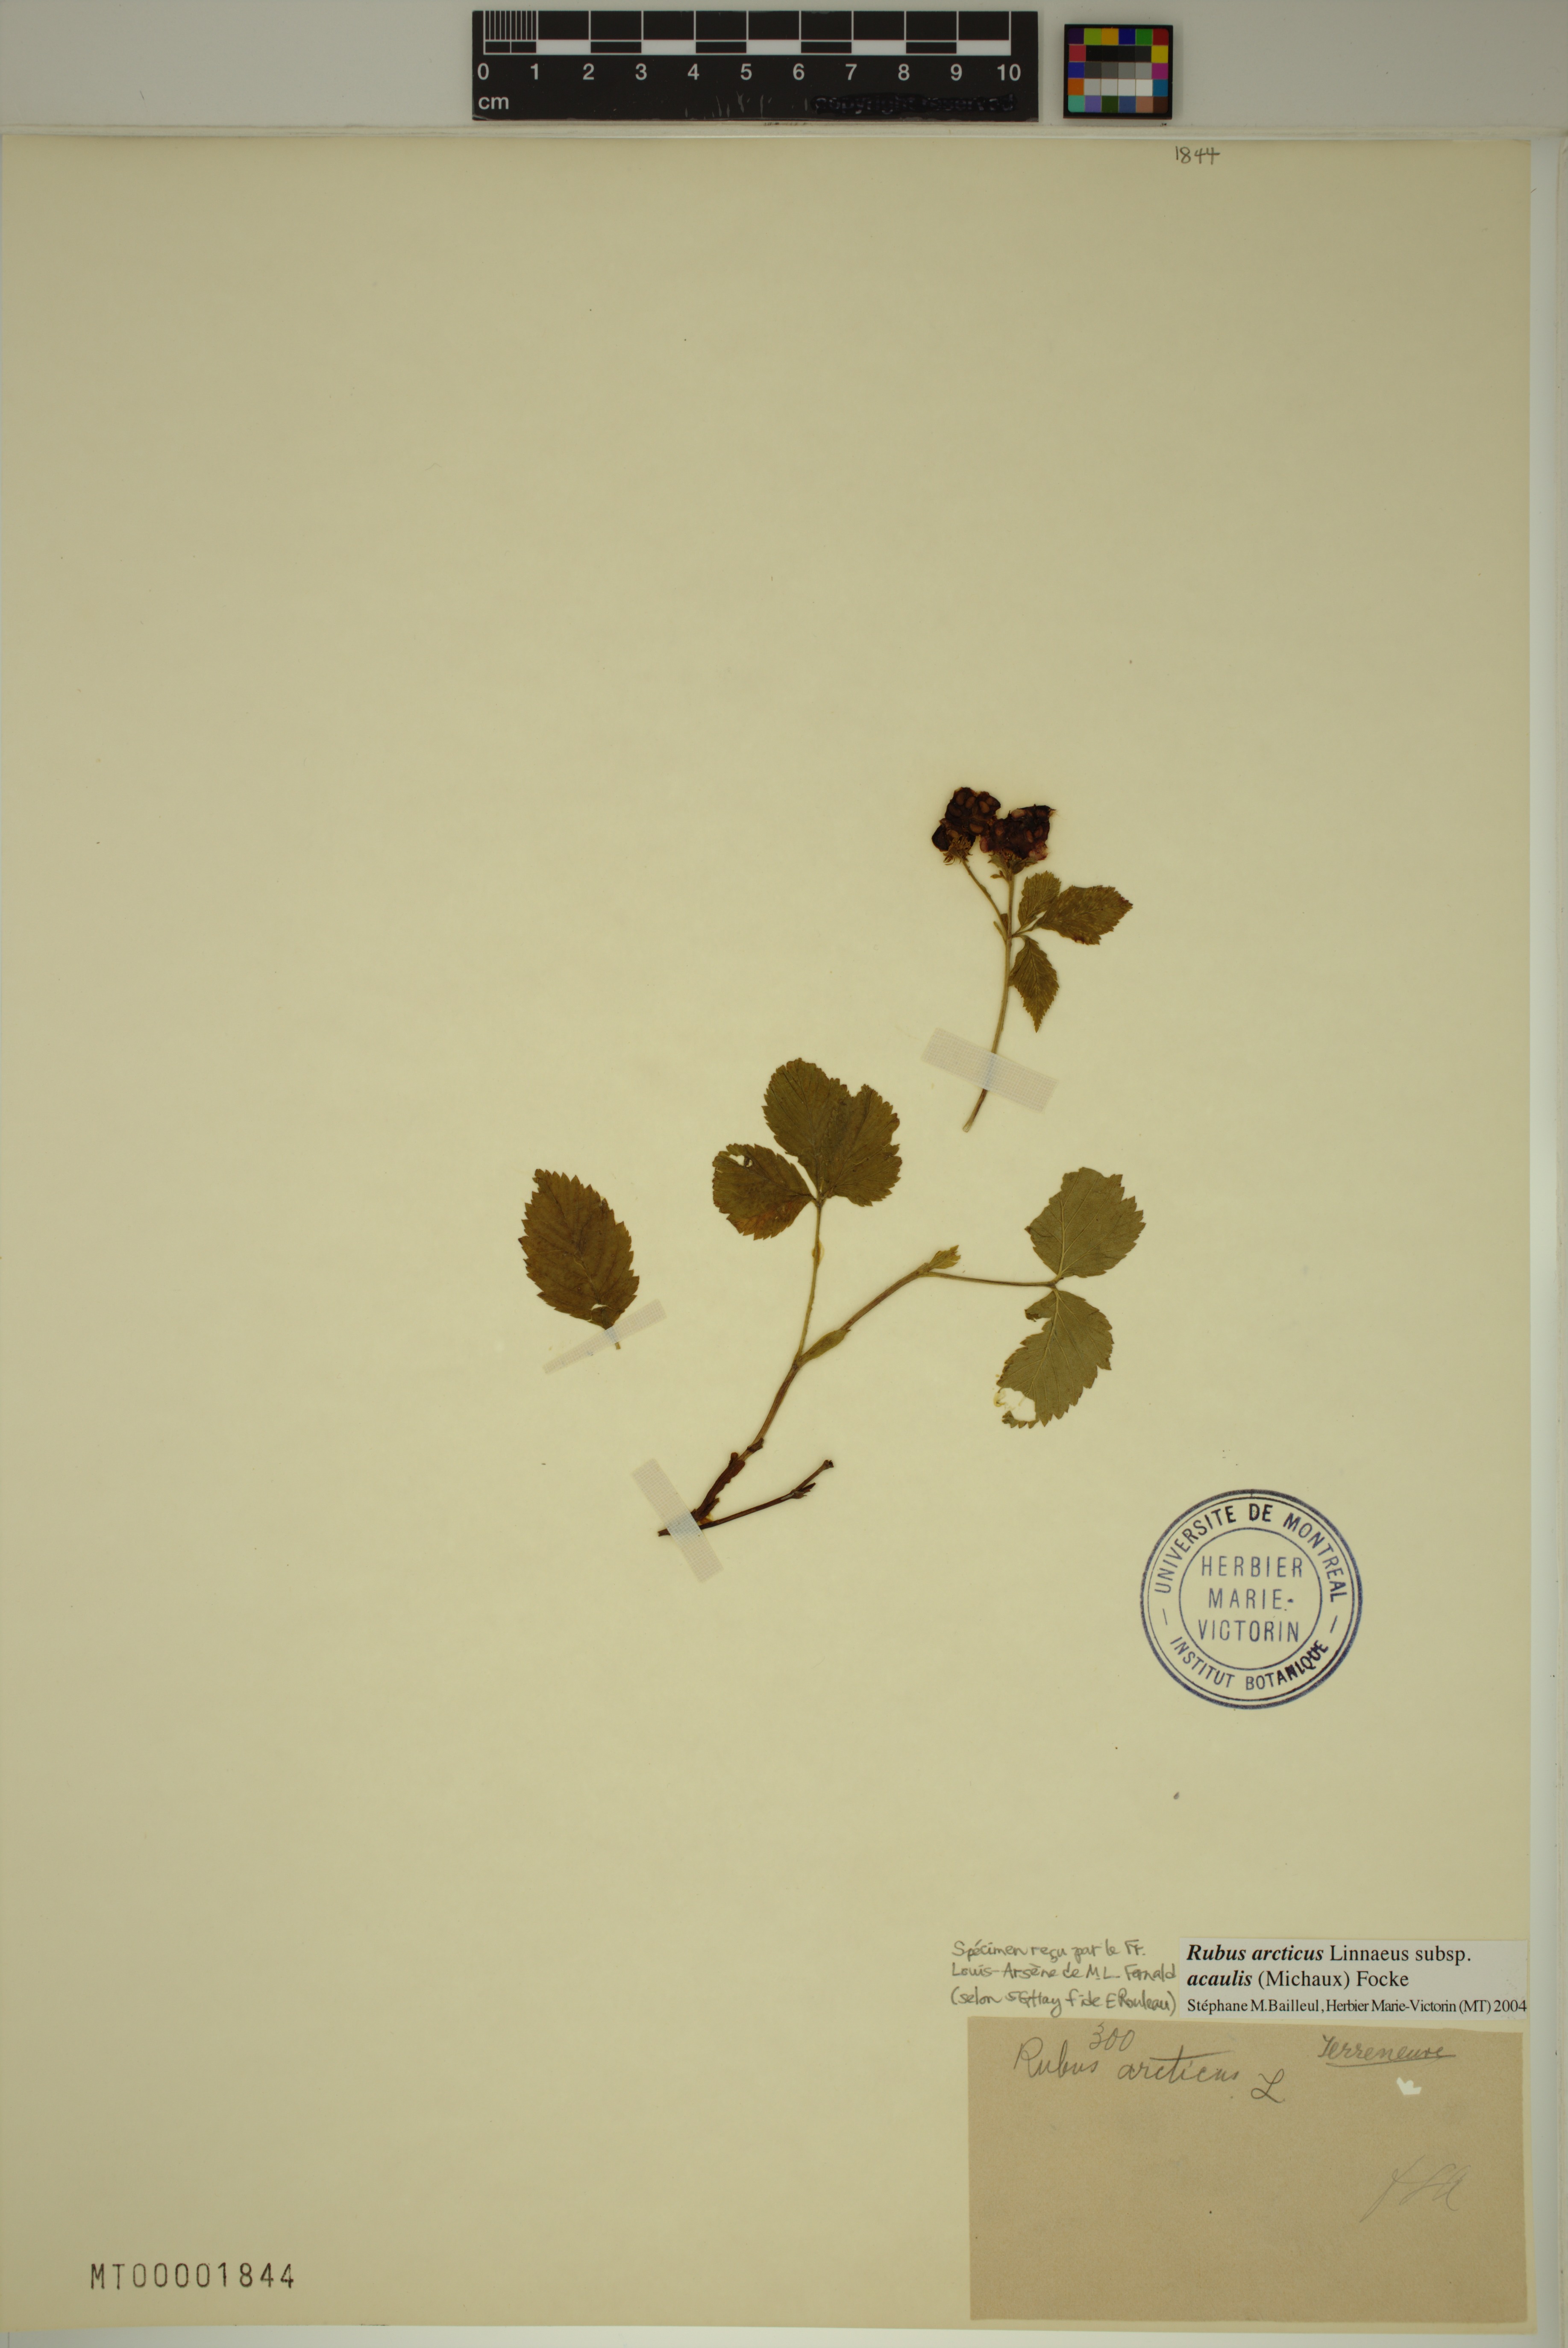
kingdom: Plantae
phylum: Tracheophyta
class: Magnoliopsida
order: Rosales
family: Rosaceae
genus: Rubus
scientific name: Rubus arcticus
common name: Arctic bramble
